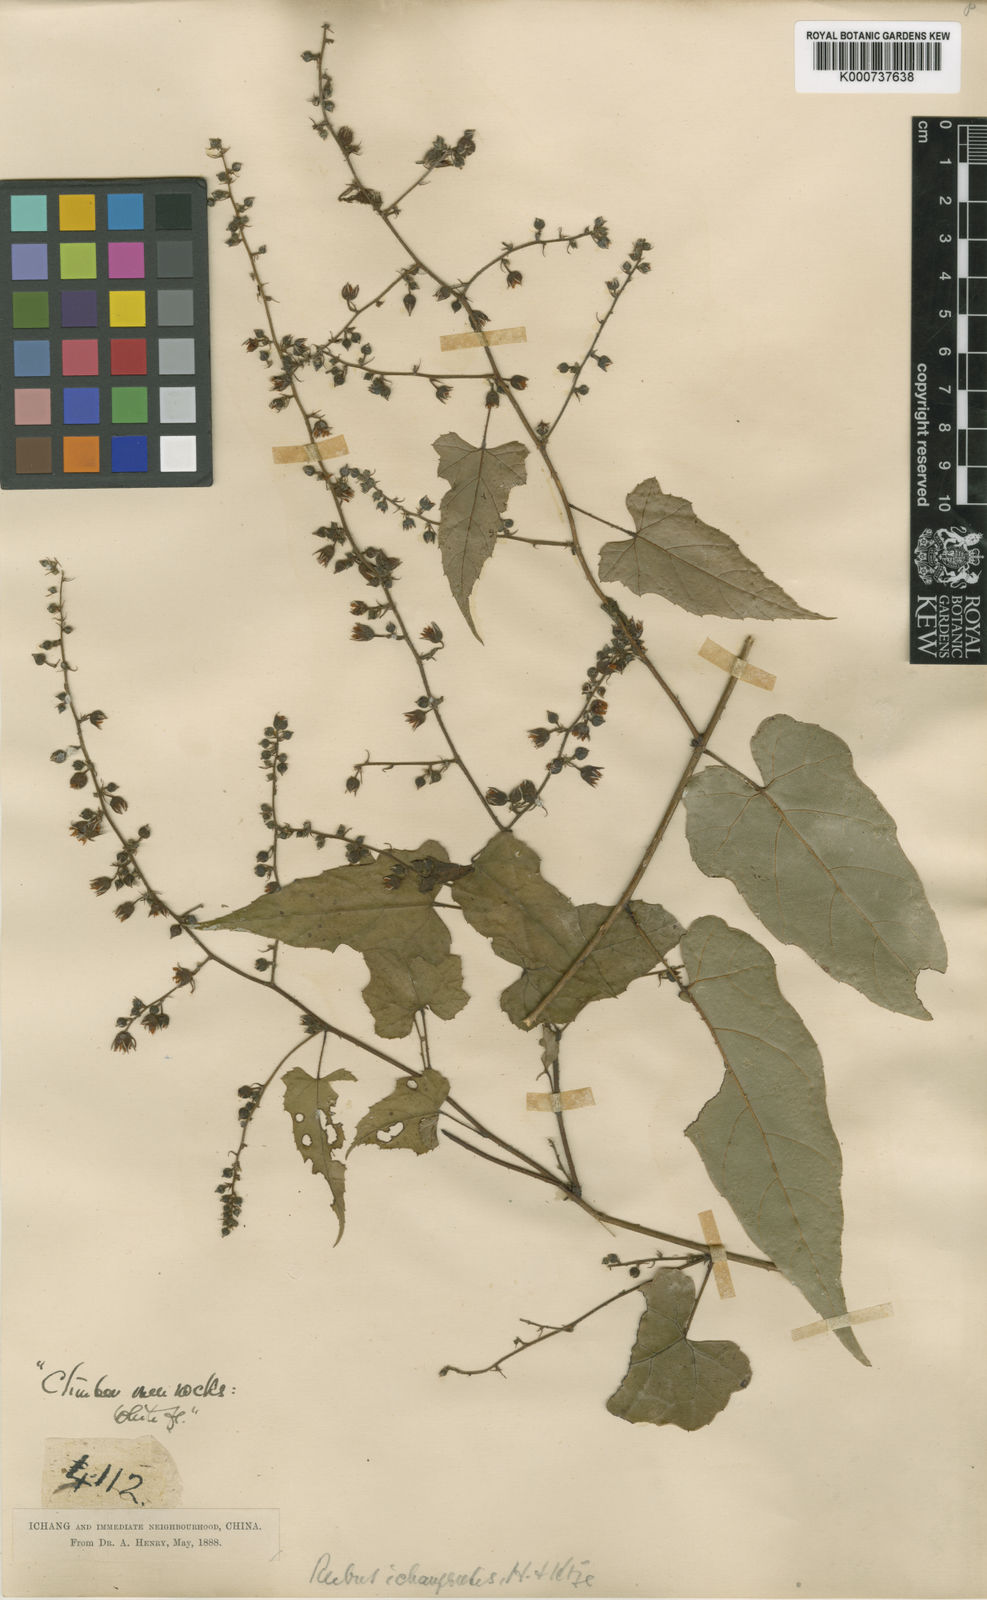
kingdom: Plantae
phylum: Tracheophyta
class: Magnoliopsida
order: Rosales
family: Rosaceae
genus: Rubus
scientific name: Rubus ichangensis
